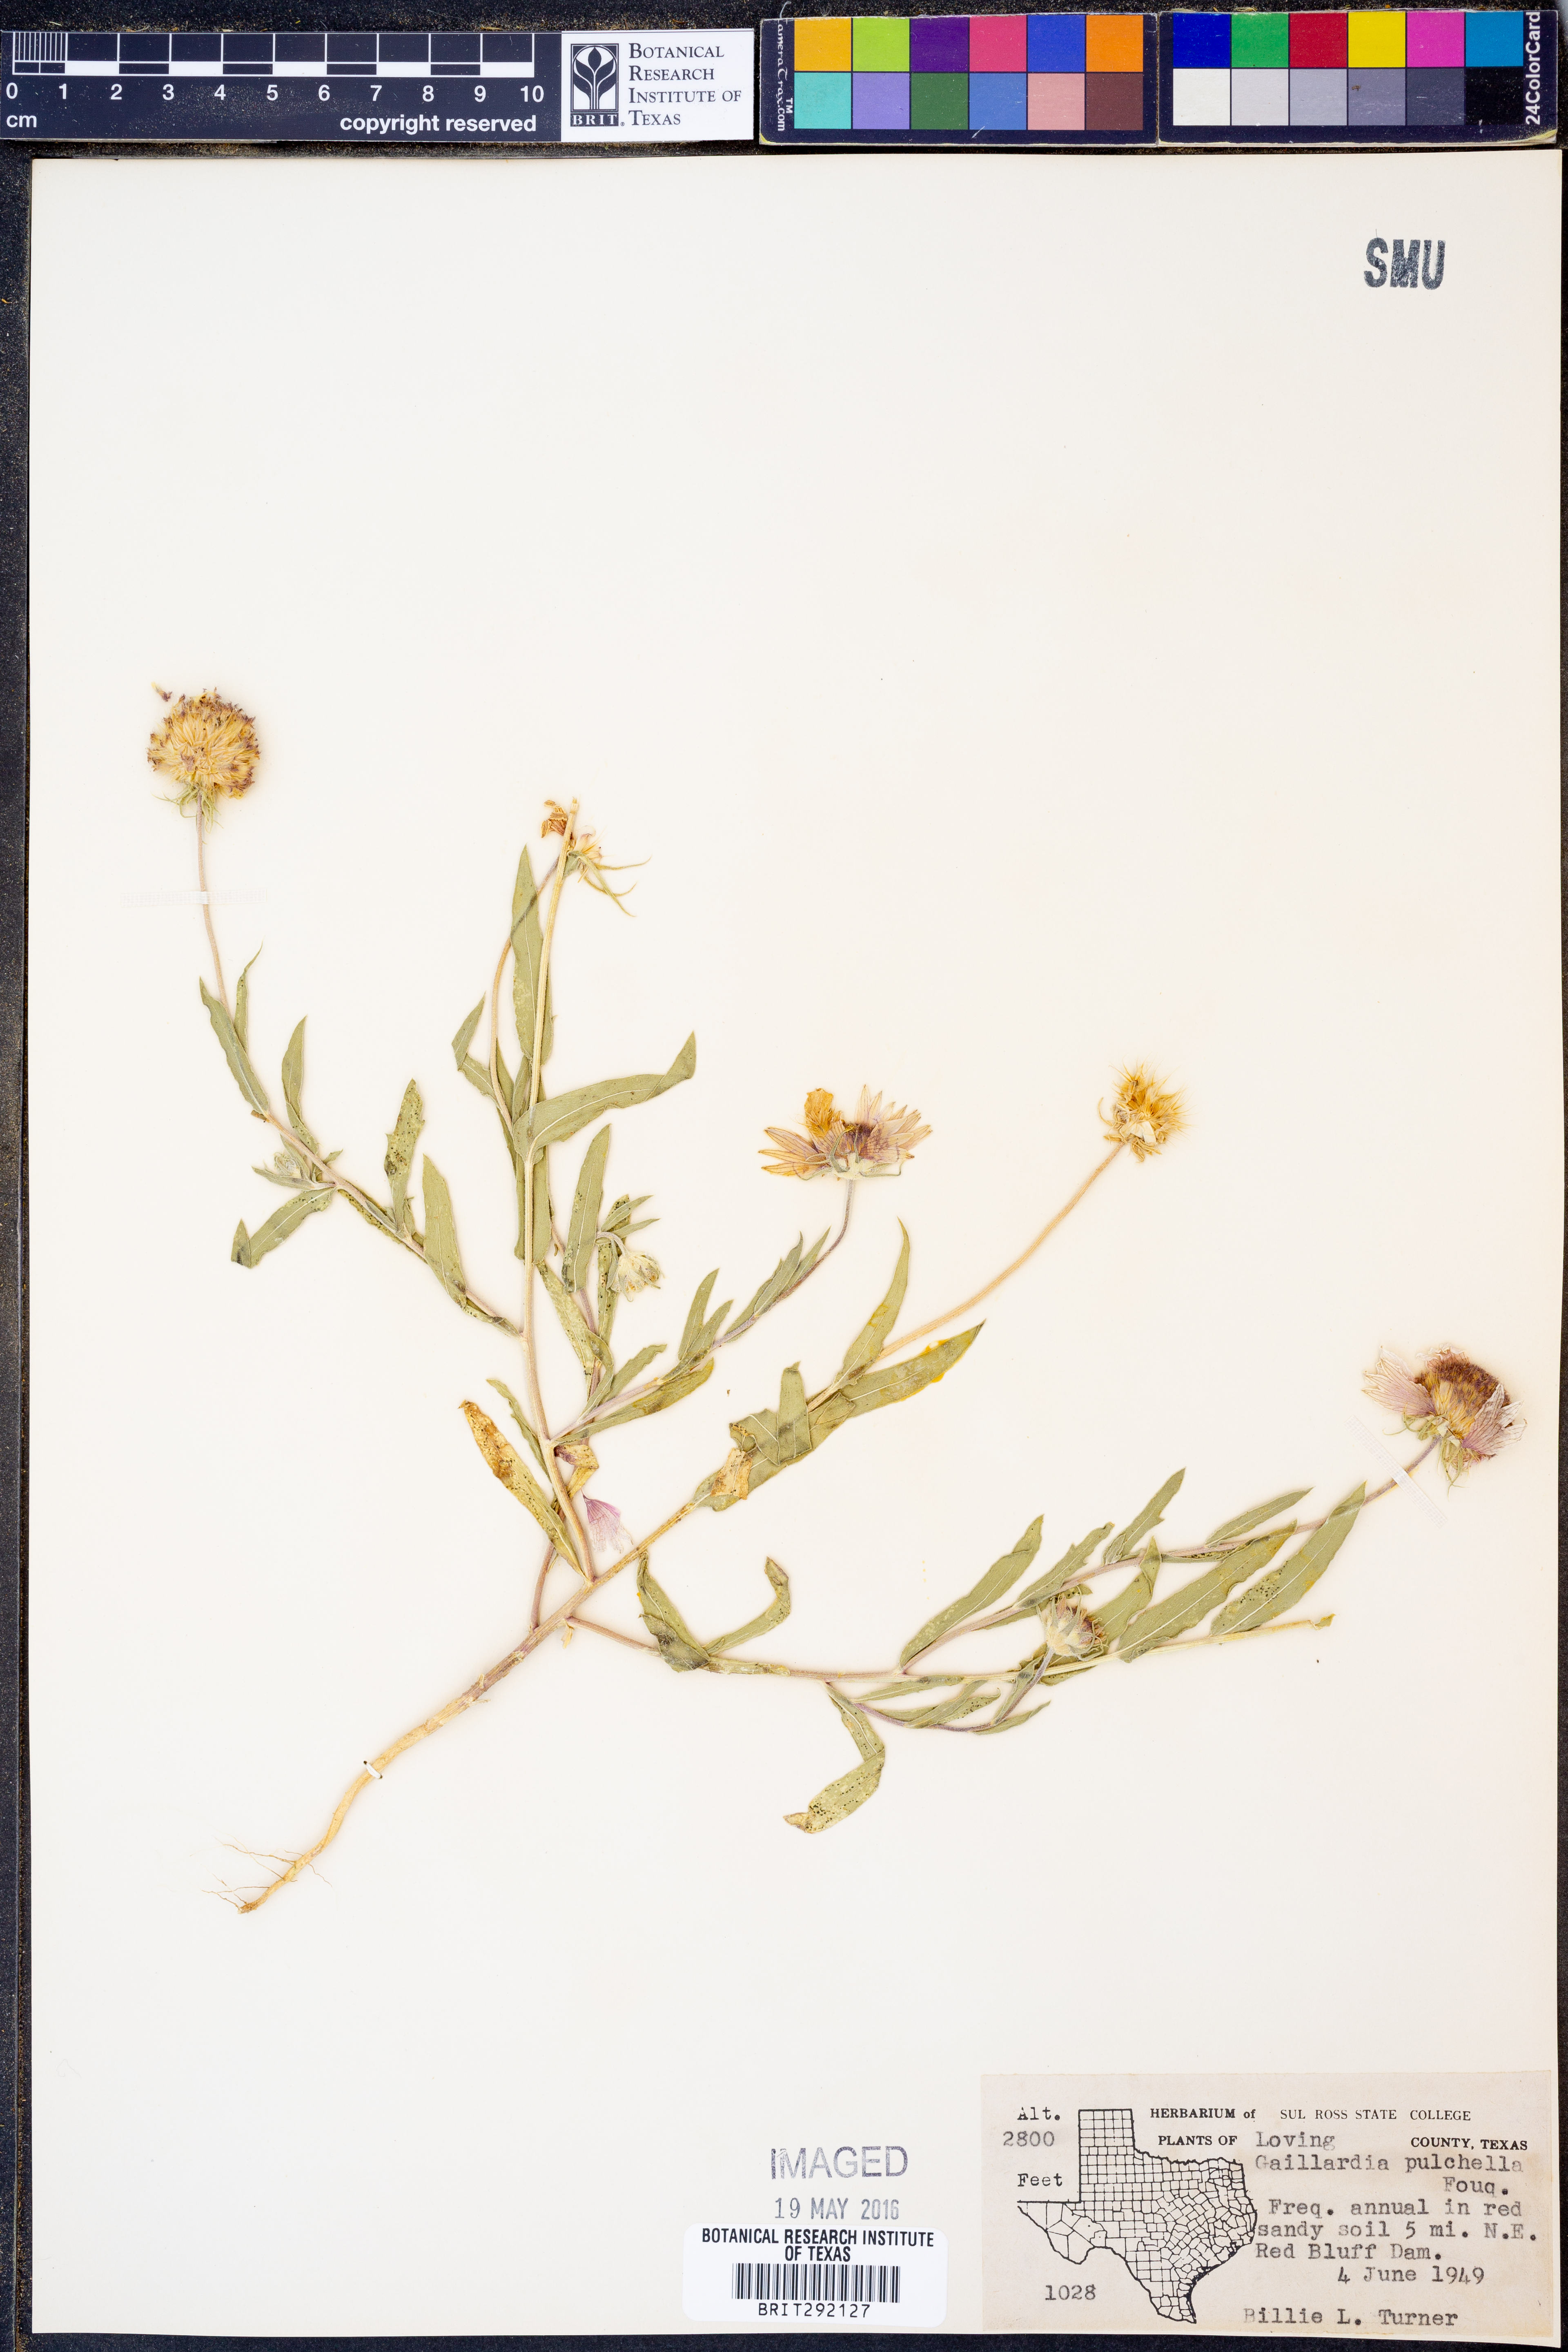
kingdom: Plantae
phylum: Tracheophyta
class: Magnoliopsida
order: Asterales
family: Asteraceae
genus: Gaillardia
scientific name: Gaillardia pulchella
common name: Firewheel
